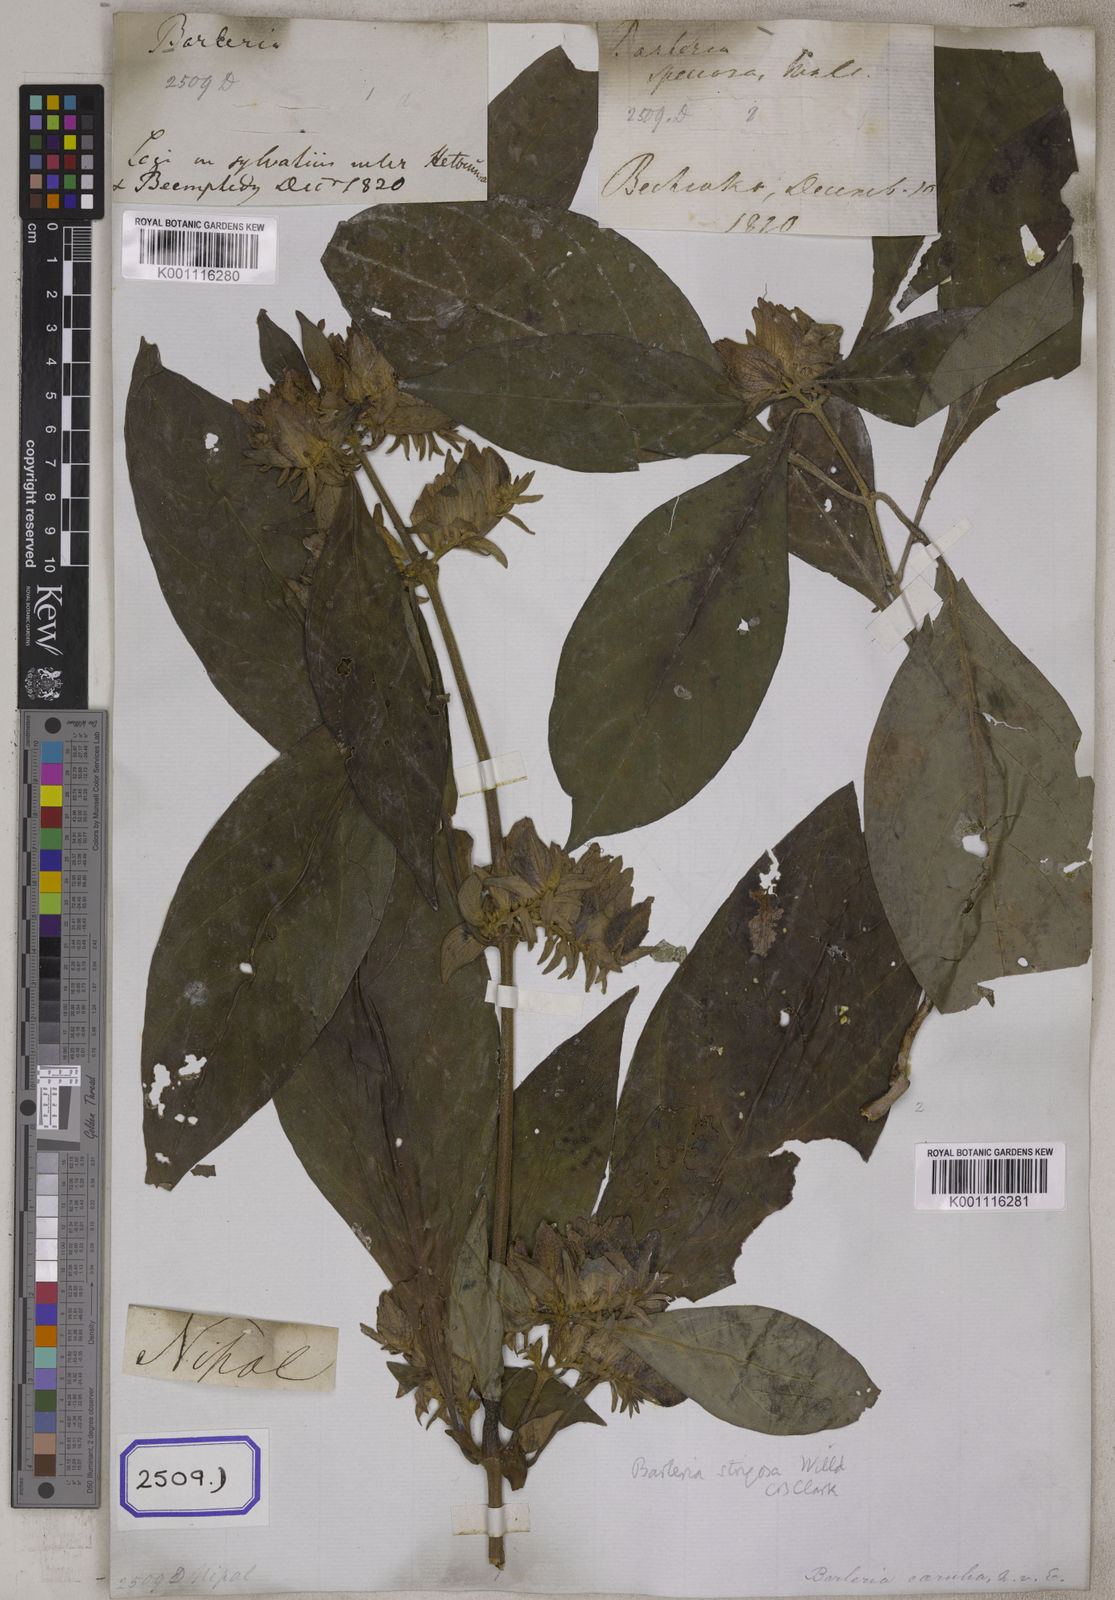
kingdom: Plantae
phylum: Tracheophyta
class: Magnoliopsida
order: Lamiales
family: Acanthaceae
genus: Barleria
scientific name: Barleria strigosa
